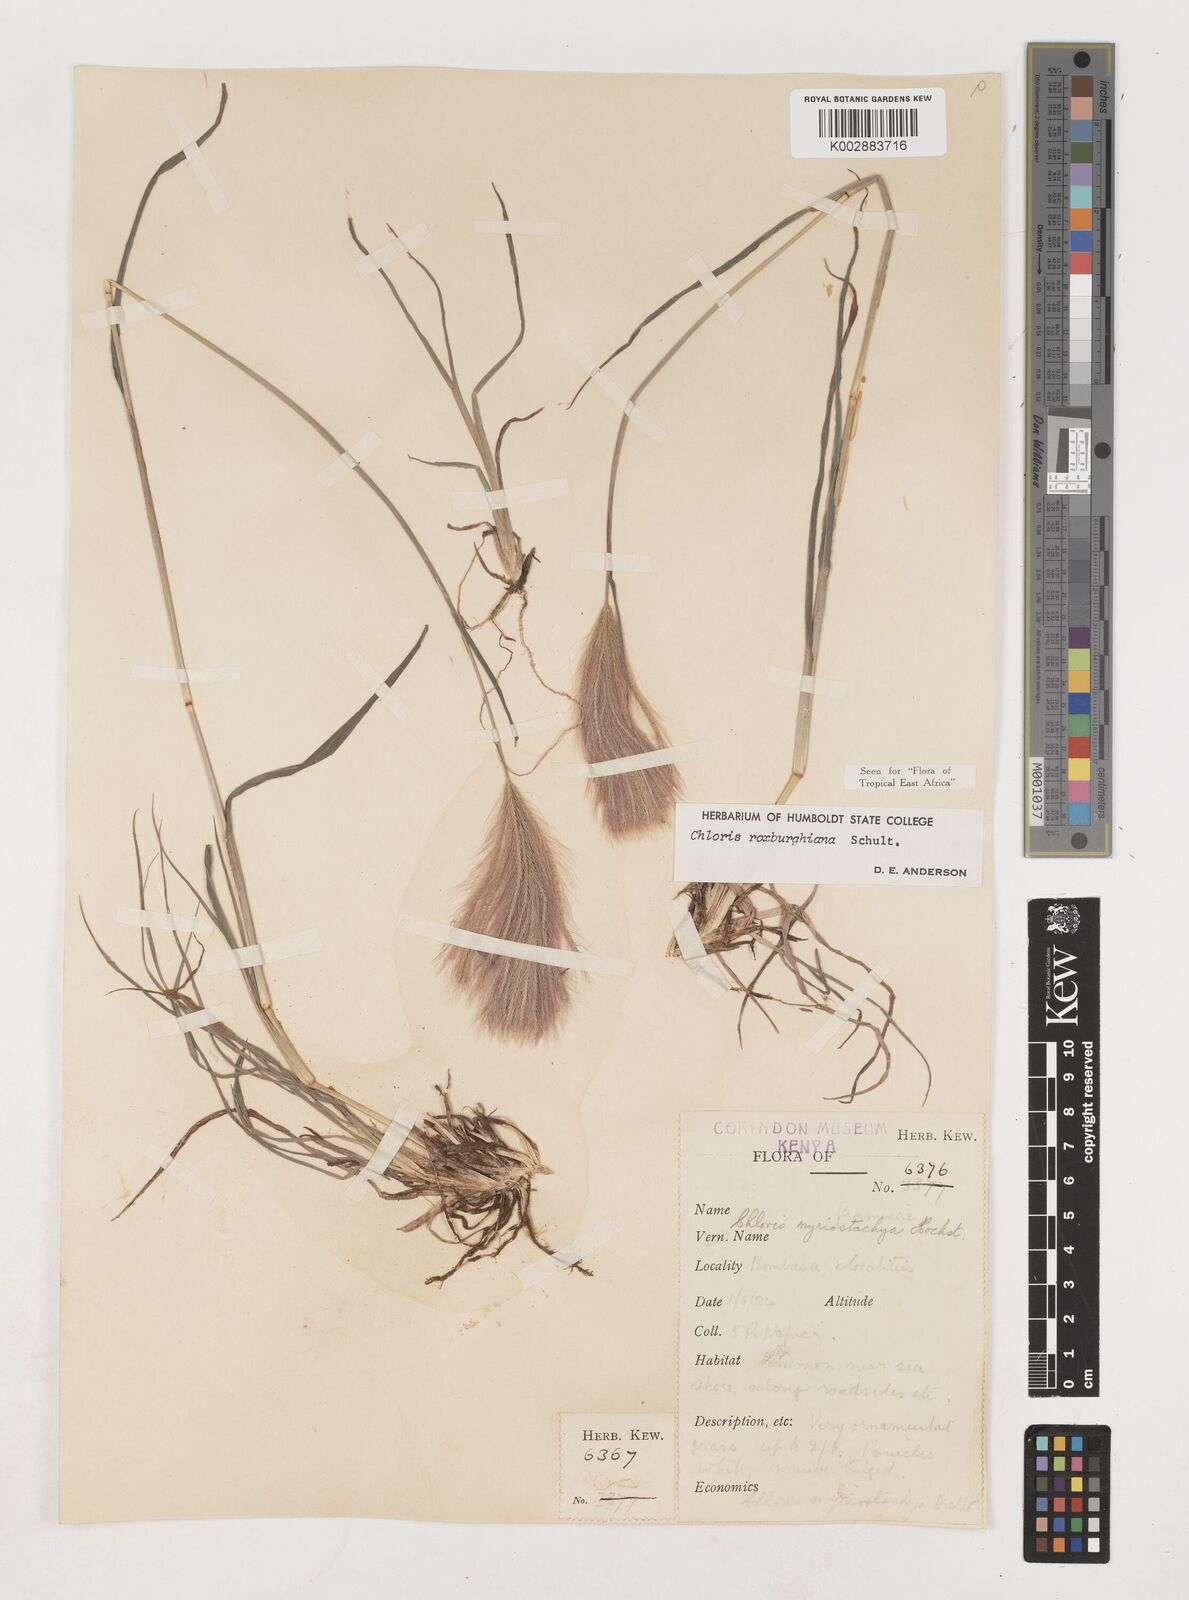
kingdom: Plantae
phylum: Tracheophyta
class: Liliopsida
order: Poales
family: Poaceae
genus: Tetrapogon
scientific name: Tetrapogon roxburghiana
